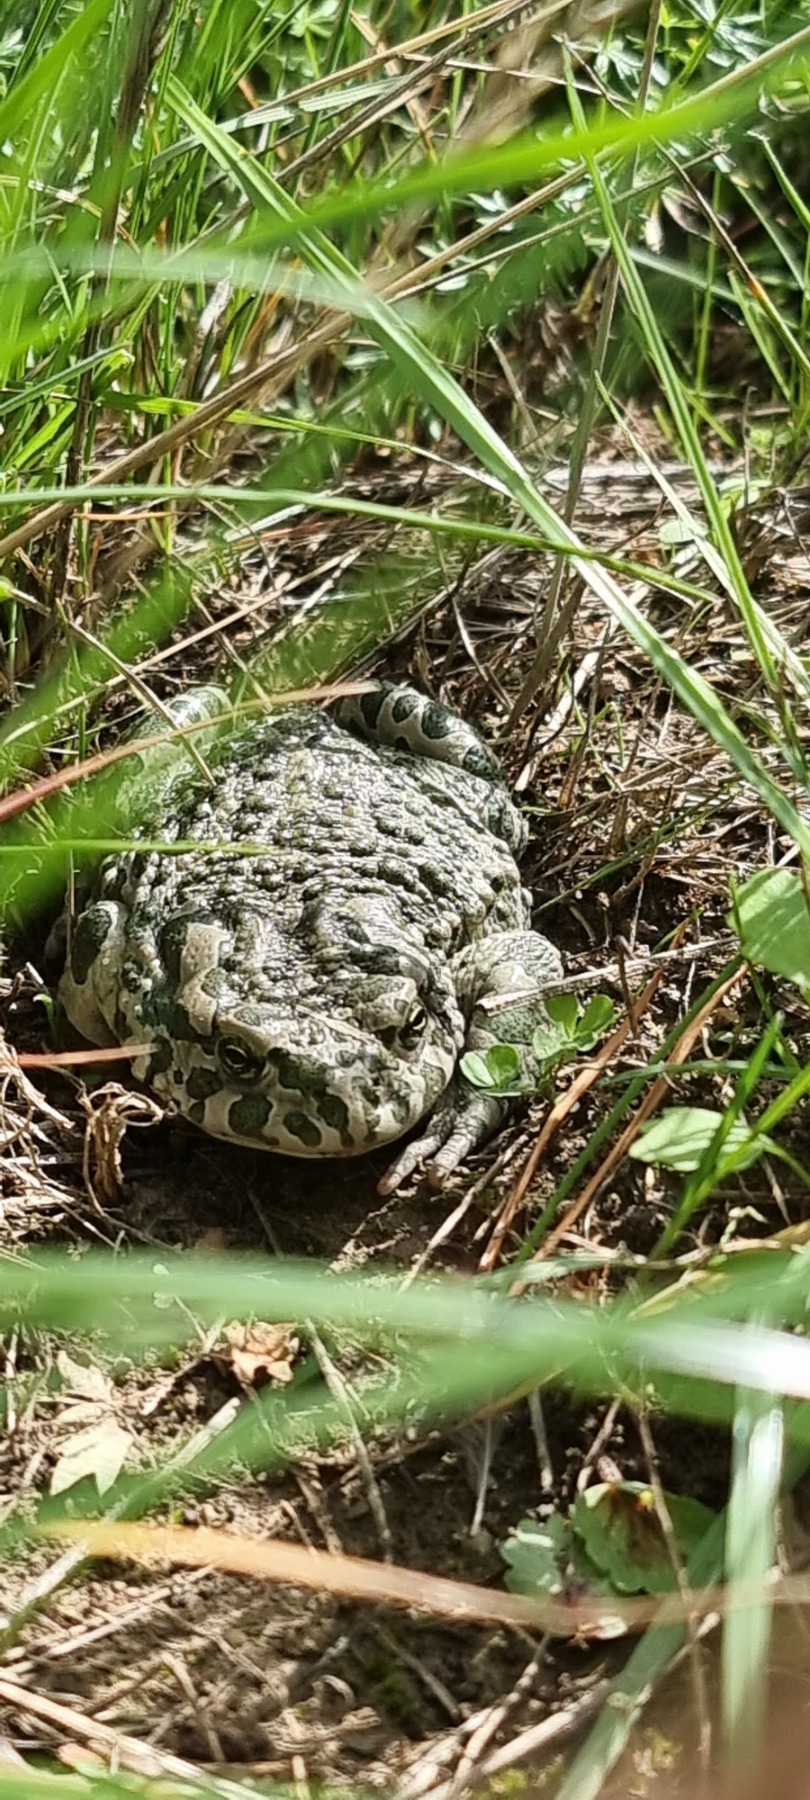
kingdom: Animalia
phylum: Chordata
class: Amphibia
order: Anura
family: Bufonidae
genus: Bufotes
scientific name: Bufotes viridis
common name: Grønbroget tudse
